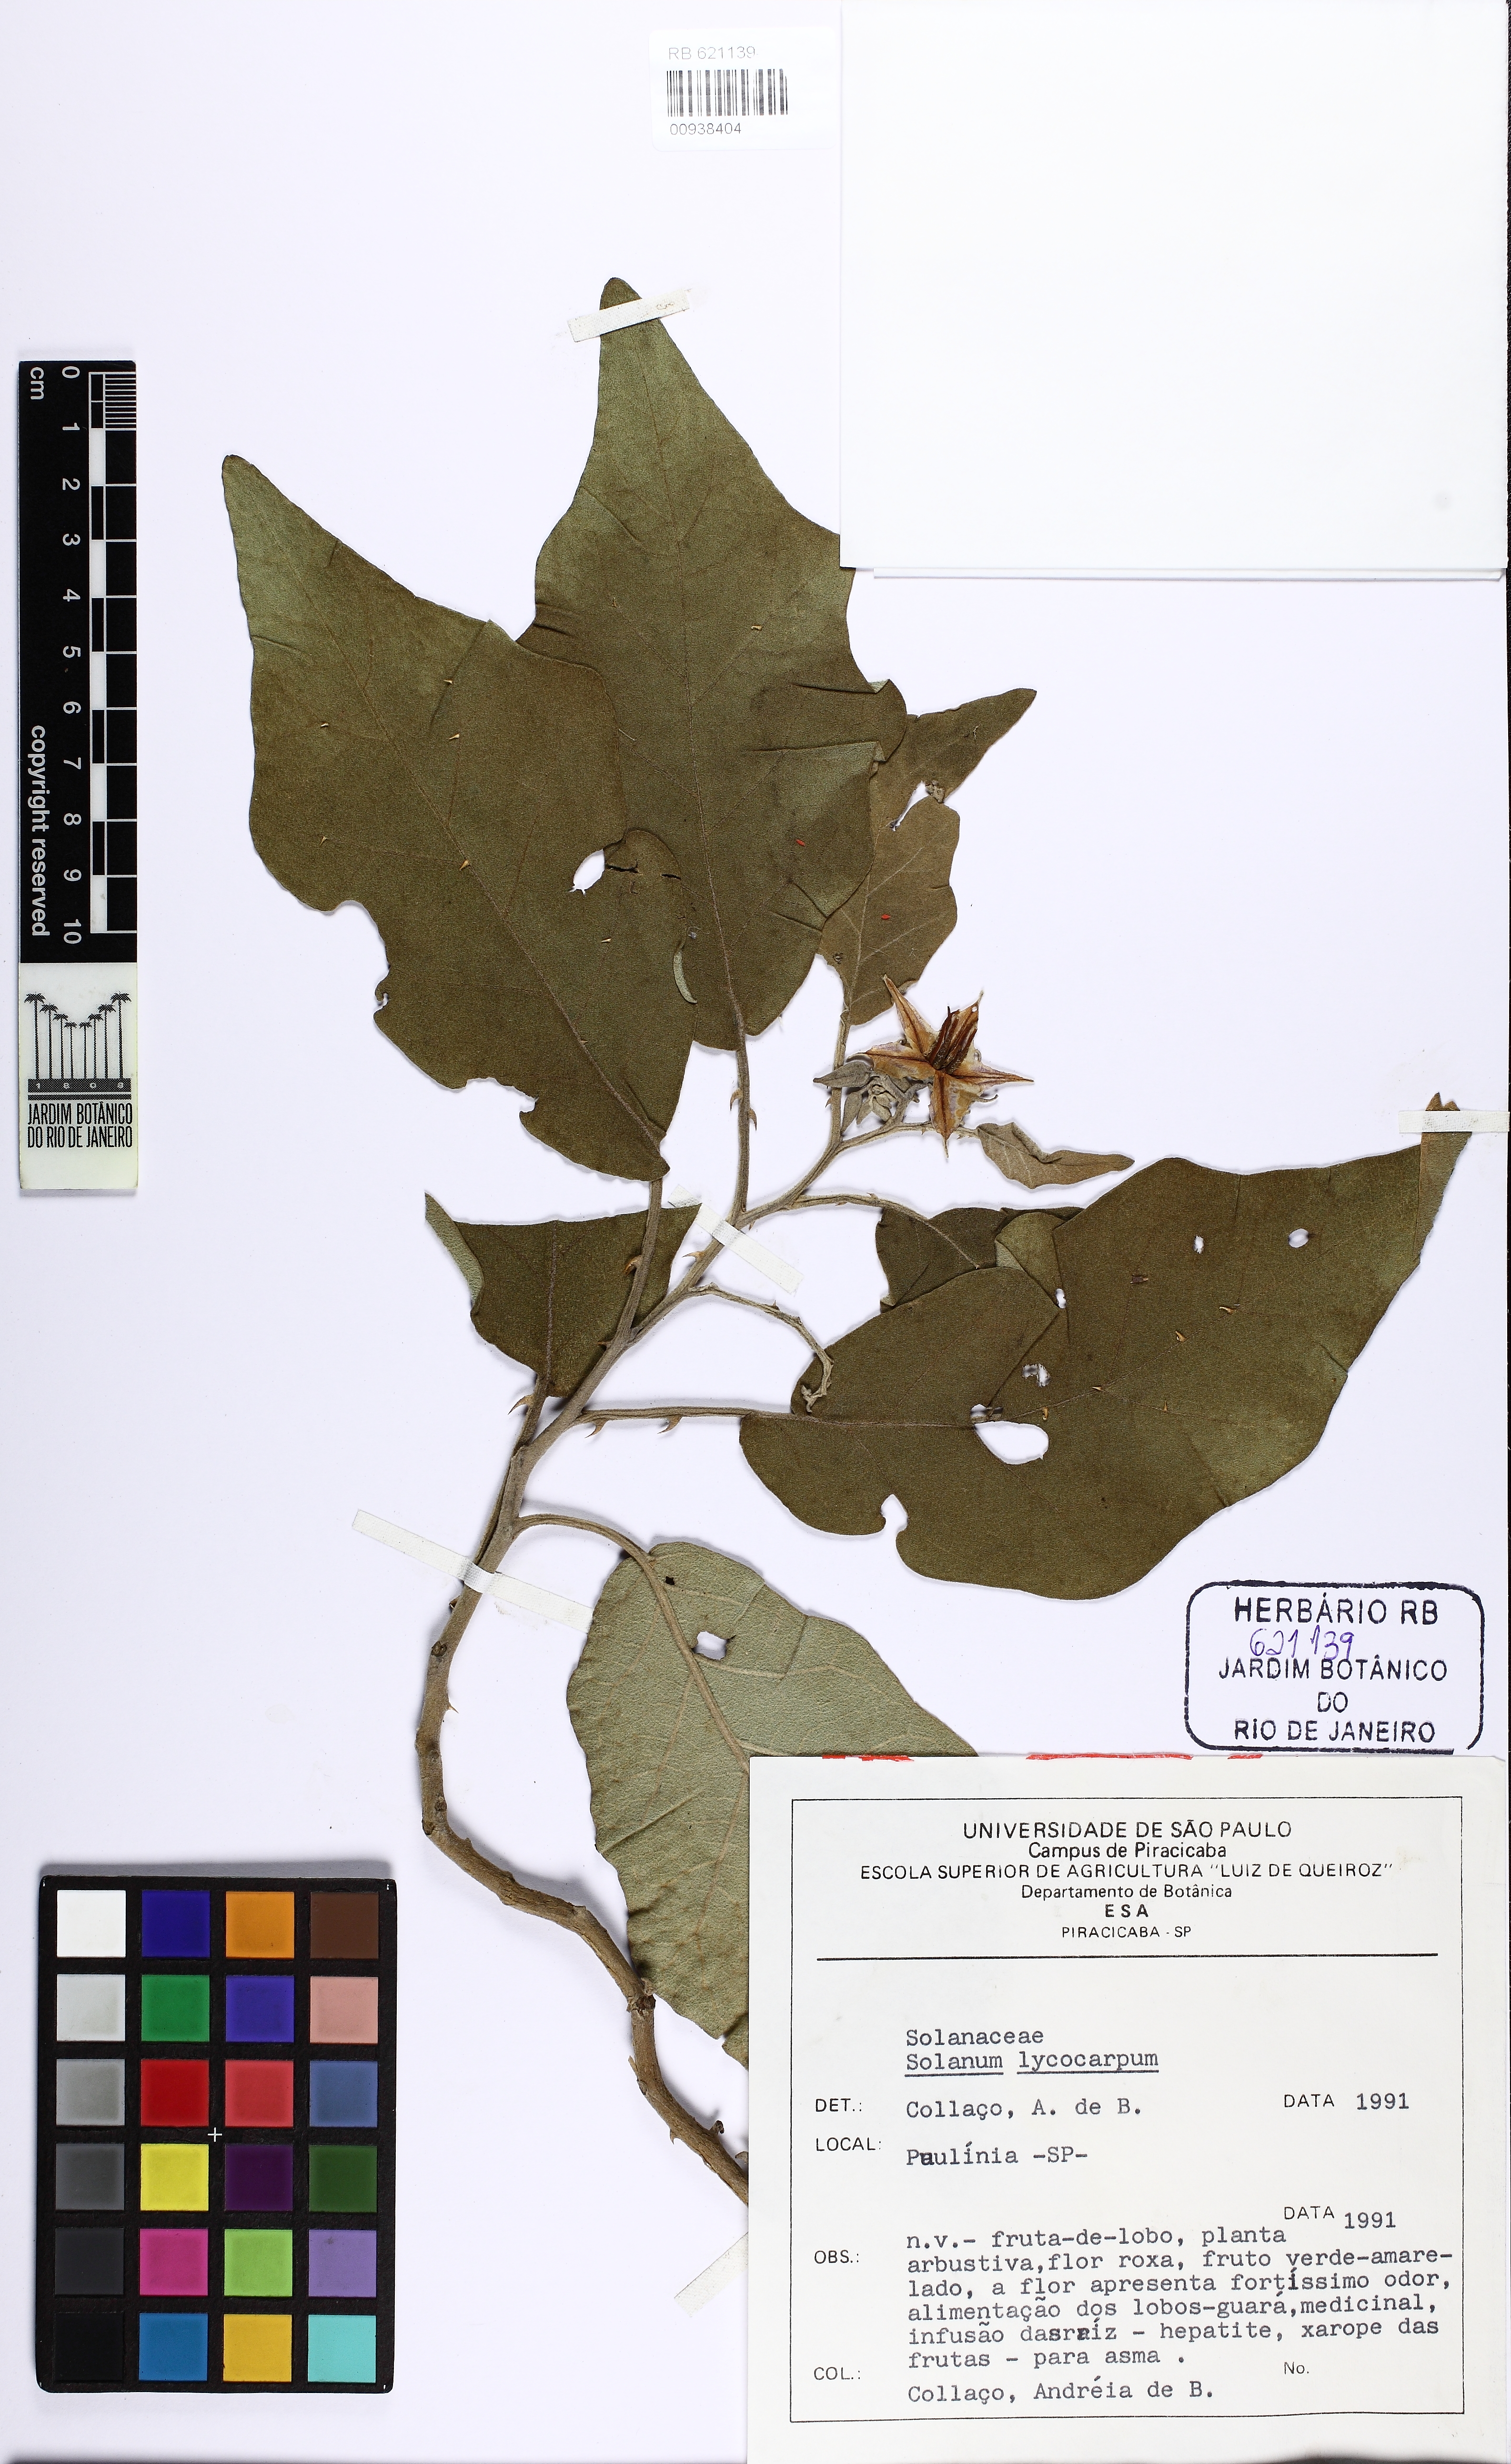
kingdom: Plantae
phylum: Tracheophyta
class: Magnoliopsida
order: Solanales
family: Solanaceae
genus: Solanum
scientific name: Solanum lycocarpum
